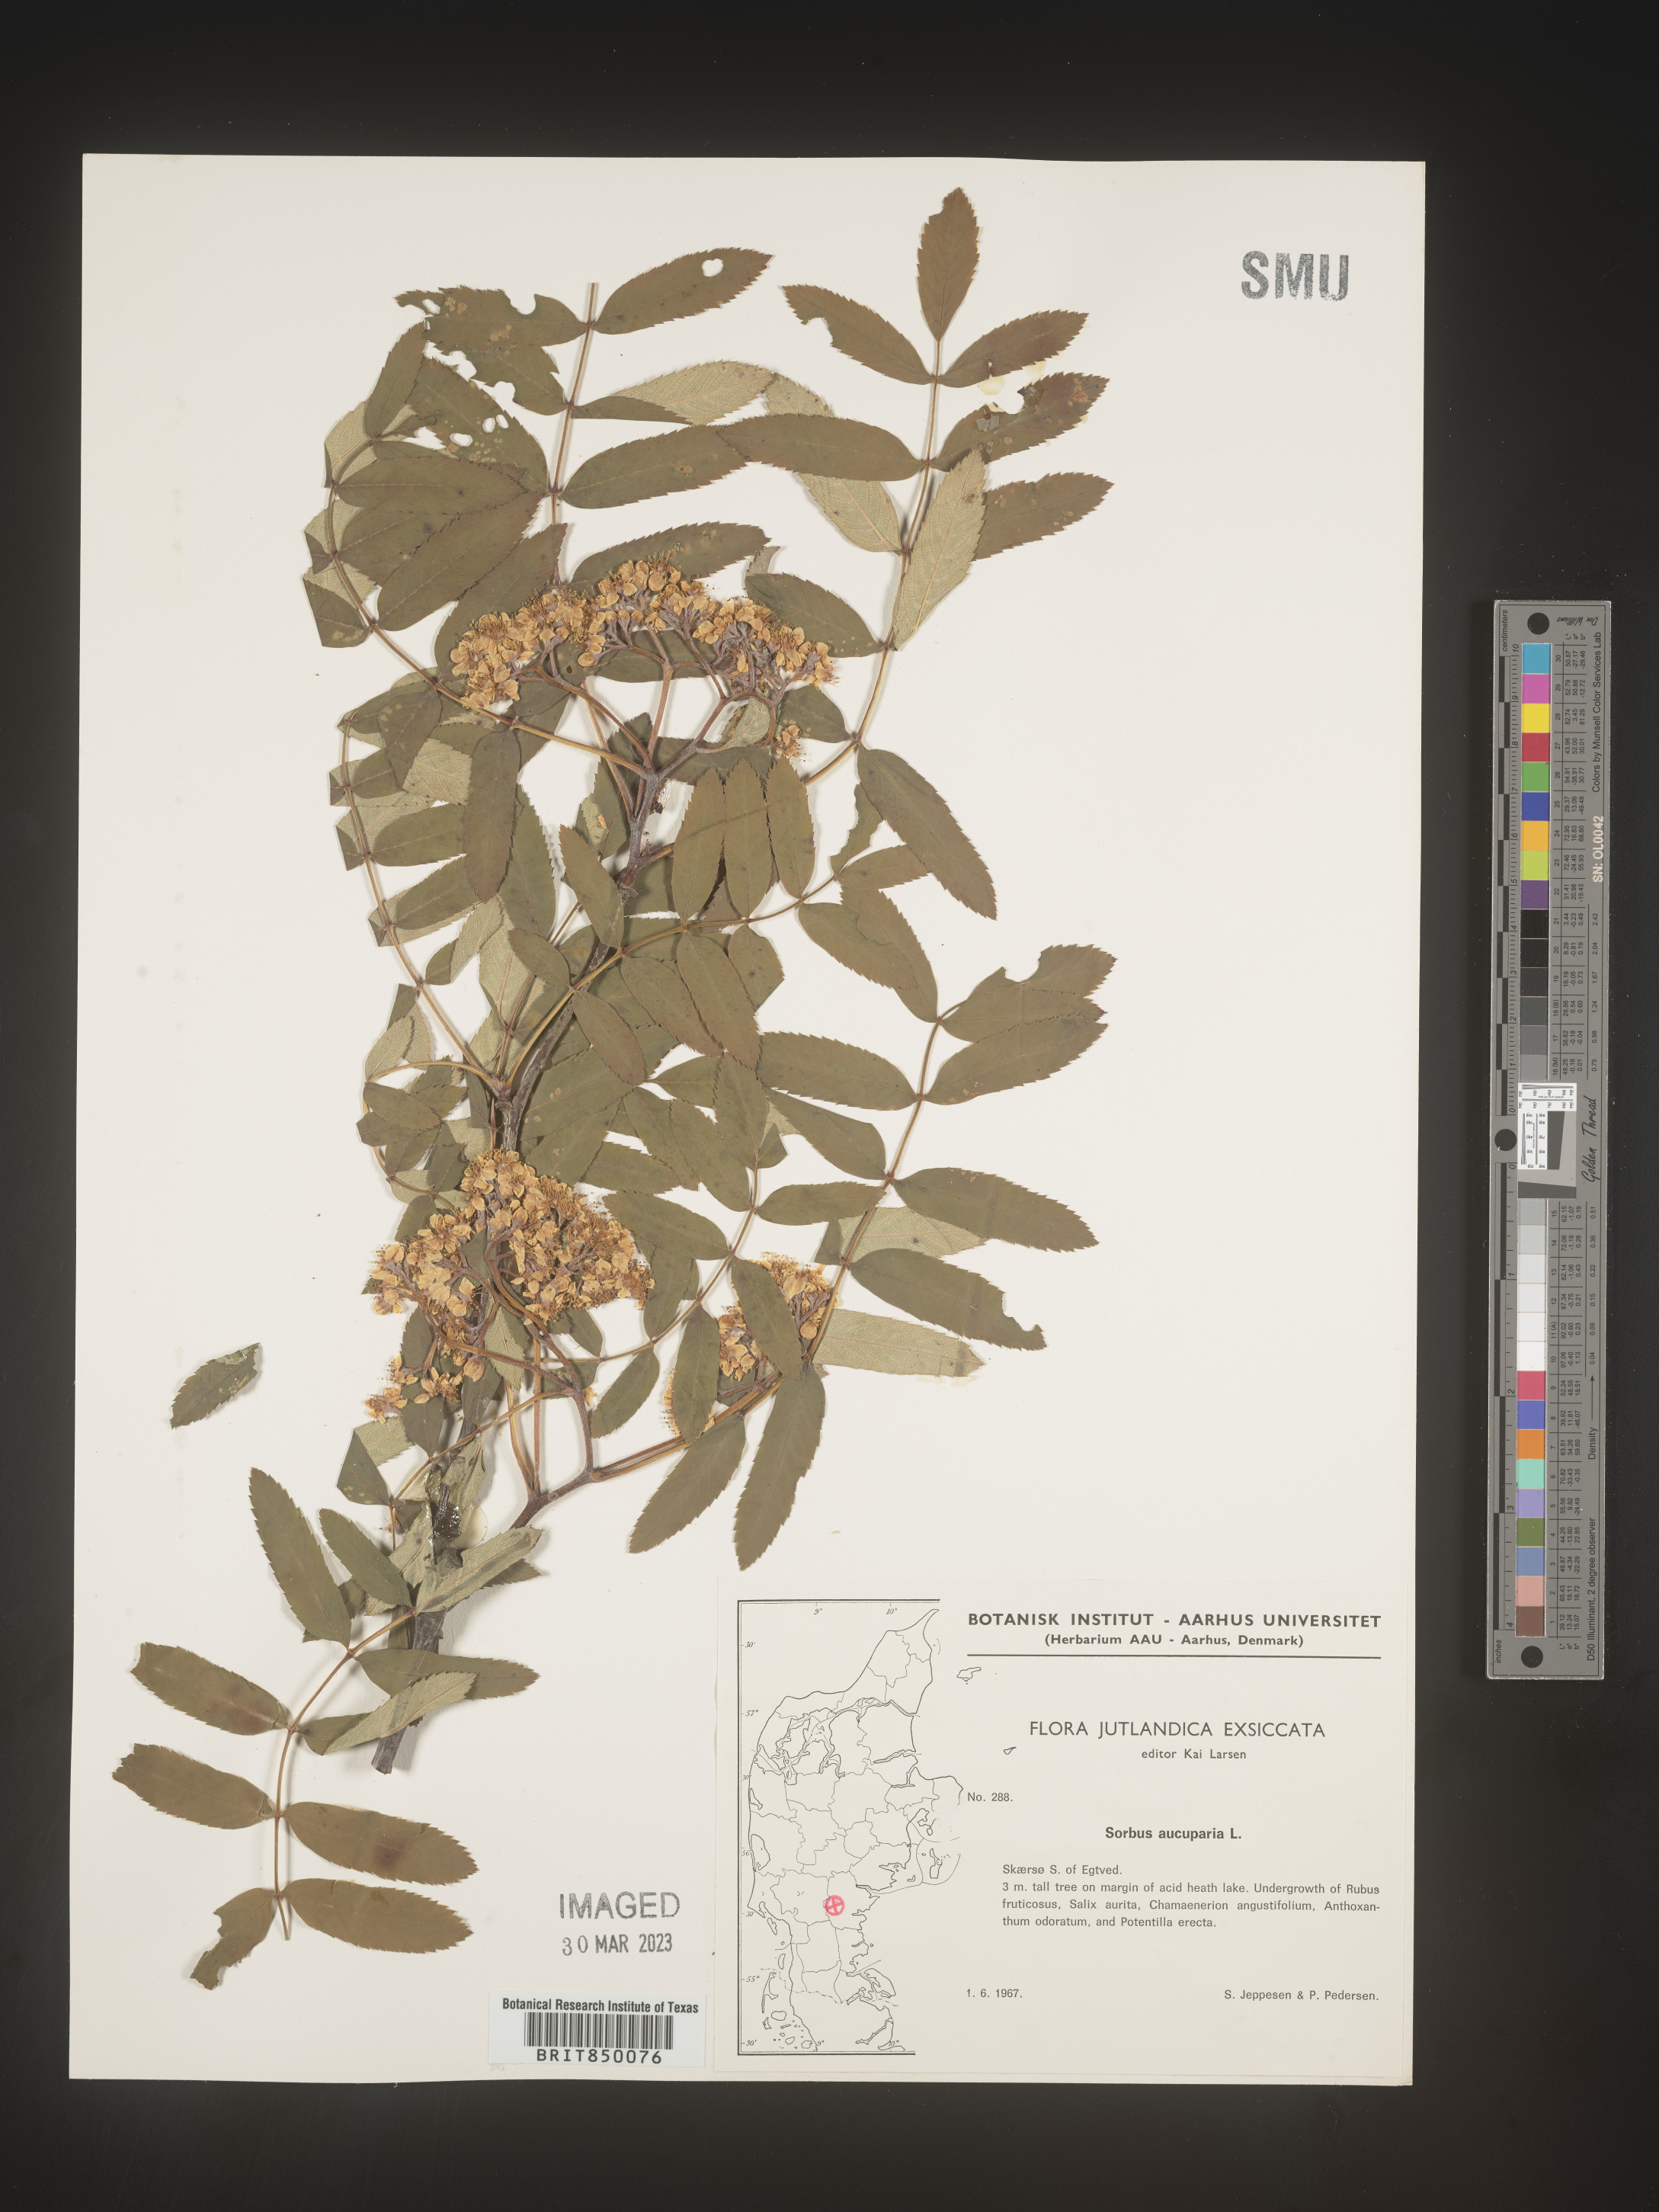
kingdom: Plantae
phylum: Tracheophyta
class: Magnoliopsida
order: Rosales
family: Rosaceae
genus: Sorbus
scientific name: Sorbus
